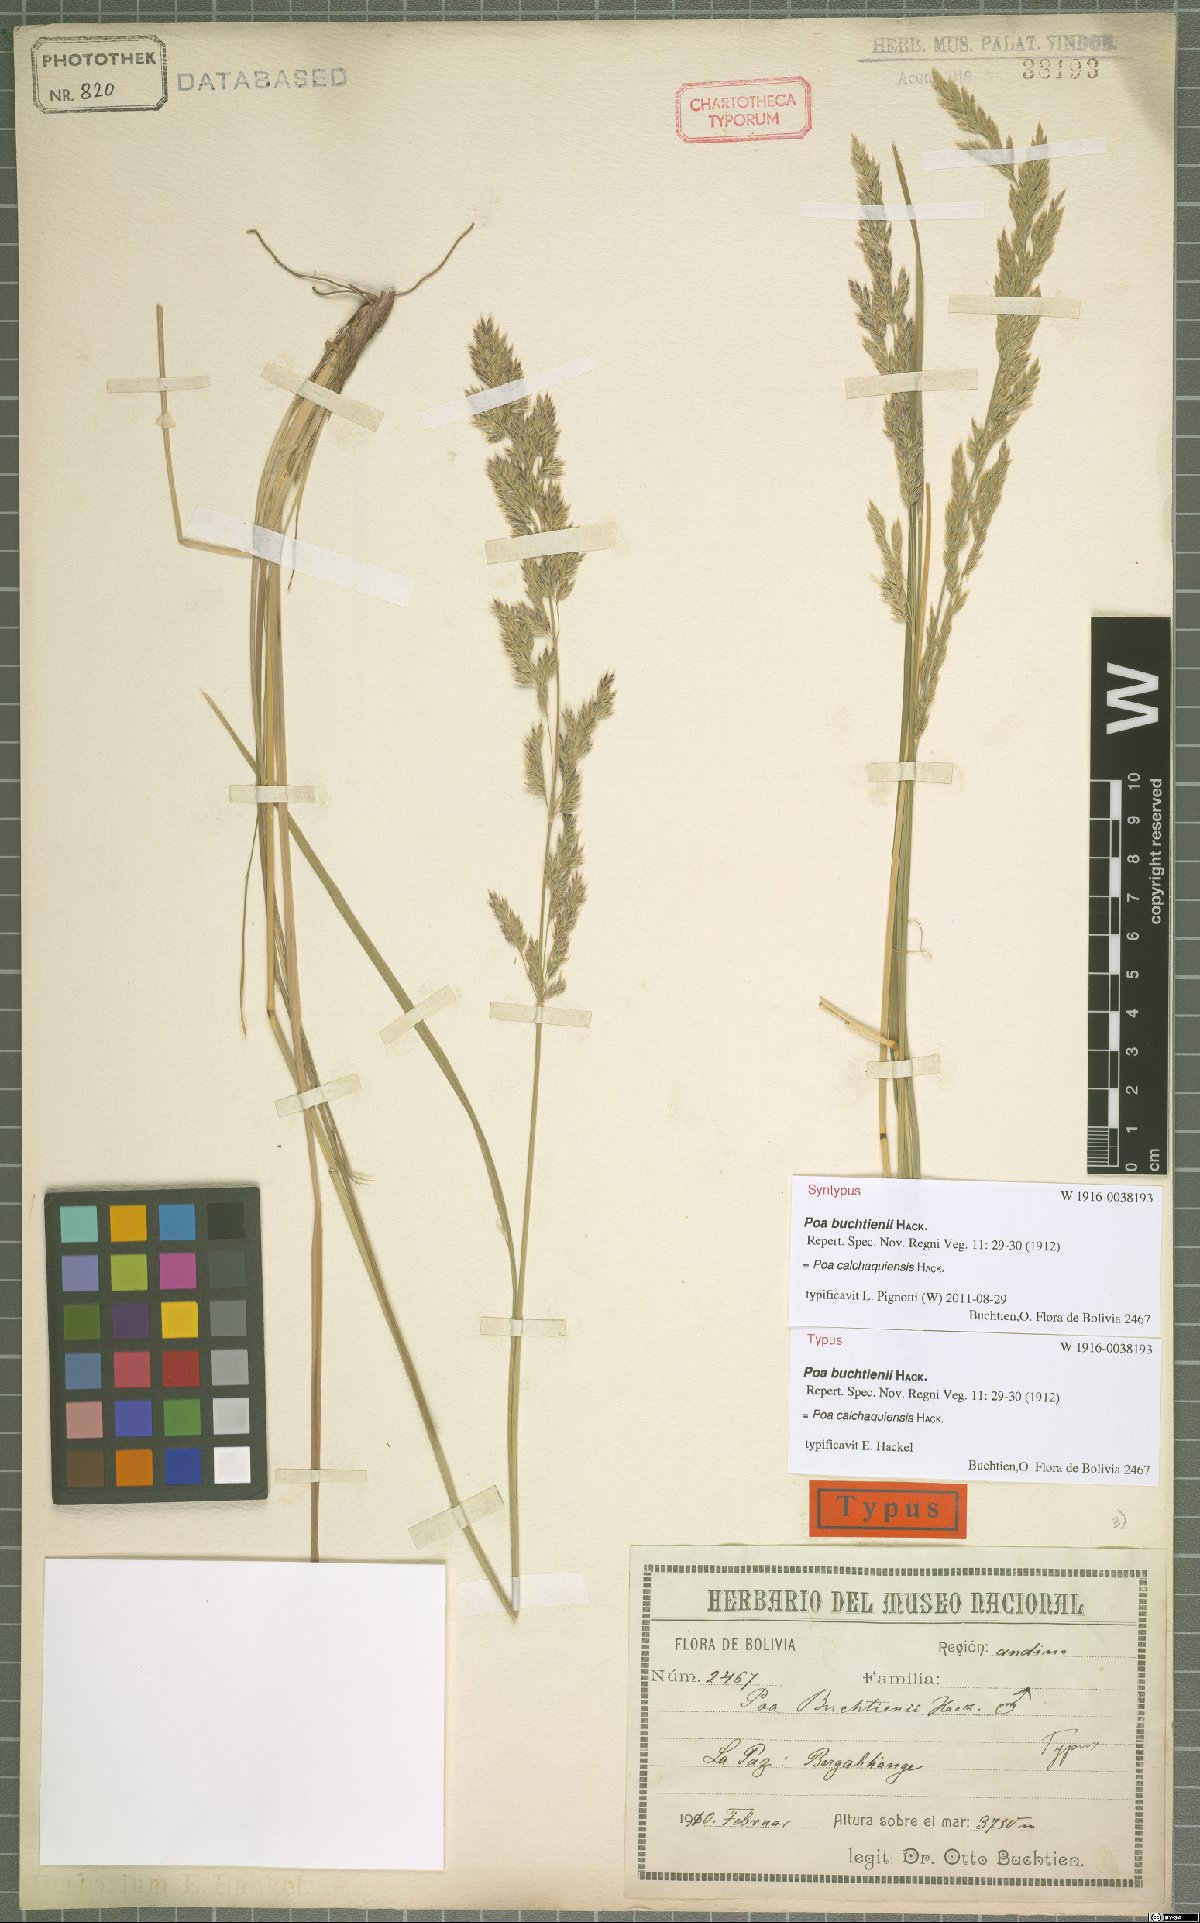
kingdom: Plantae
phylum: Tracheophyta
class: Liliopsida
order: Poales
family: Poaceae
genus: Poa
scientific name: Poa calchaquiensis
